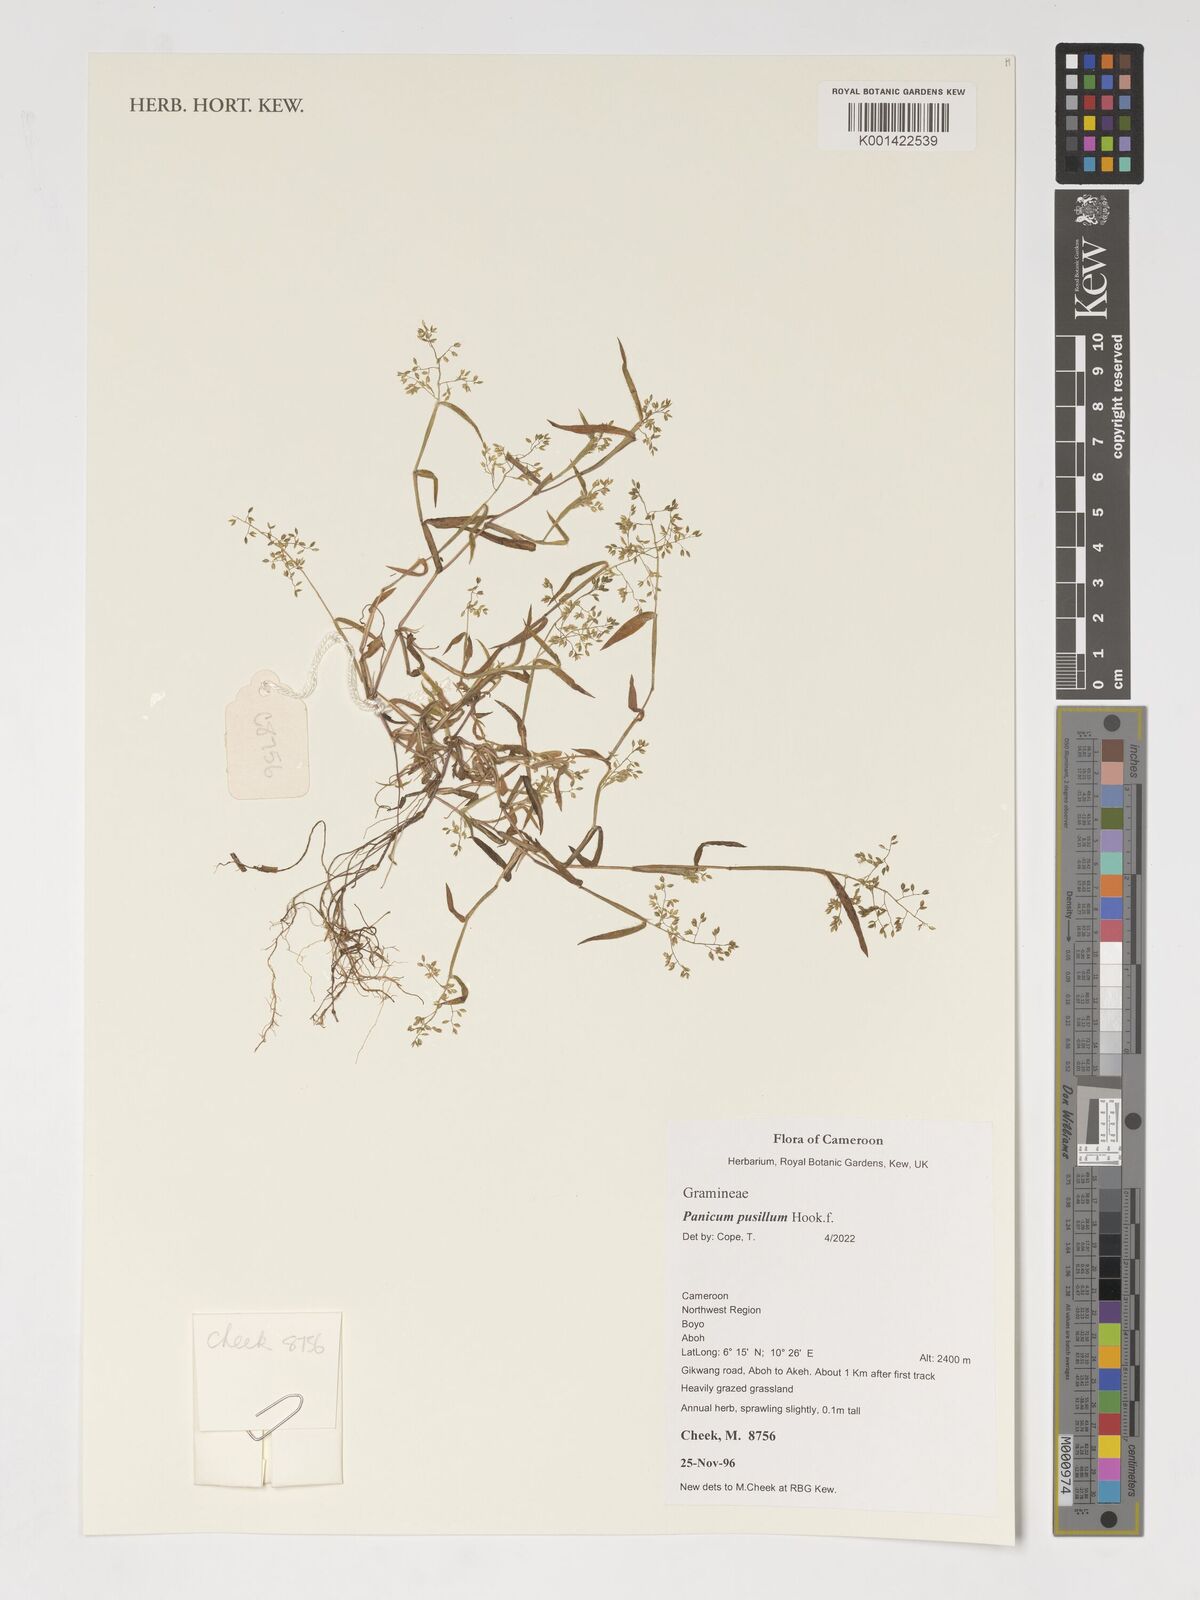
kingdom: Plantae
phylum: Tracheophyta
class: Liliopsida
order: Poales
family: Poaceae
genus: Panicum
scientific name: Panicum pusillum
